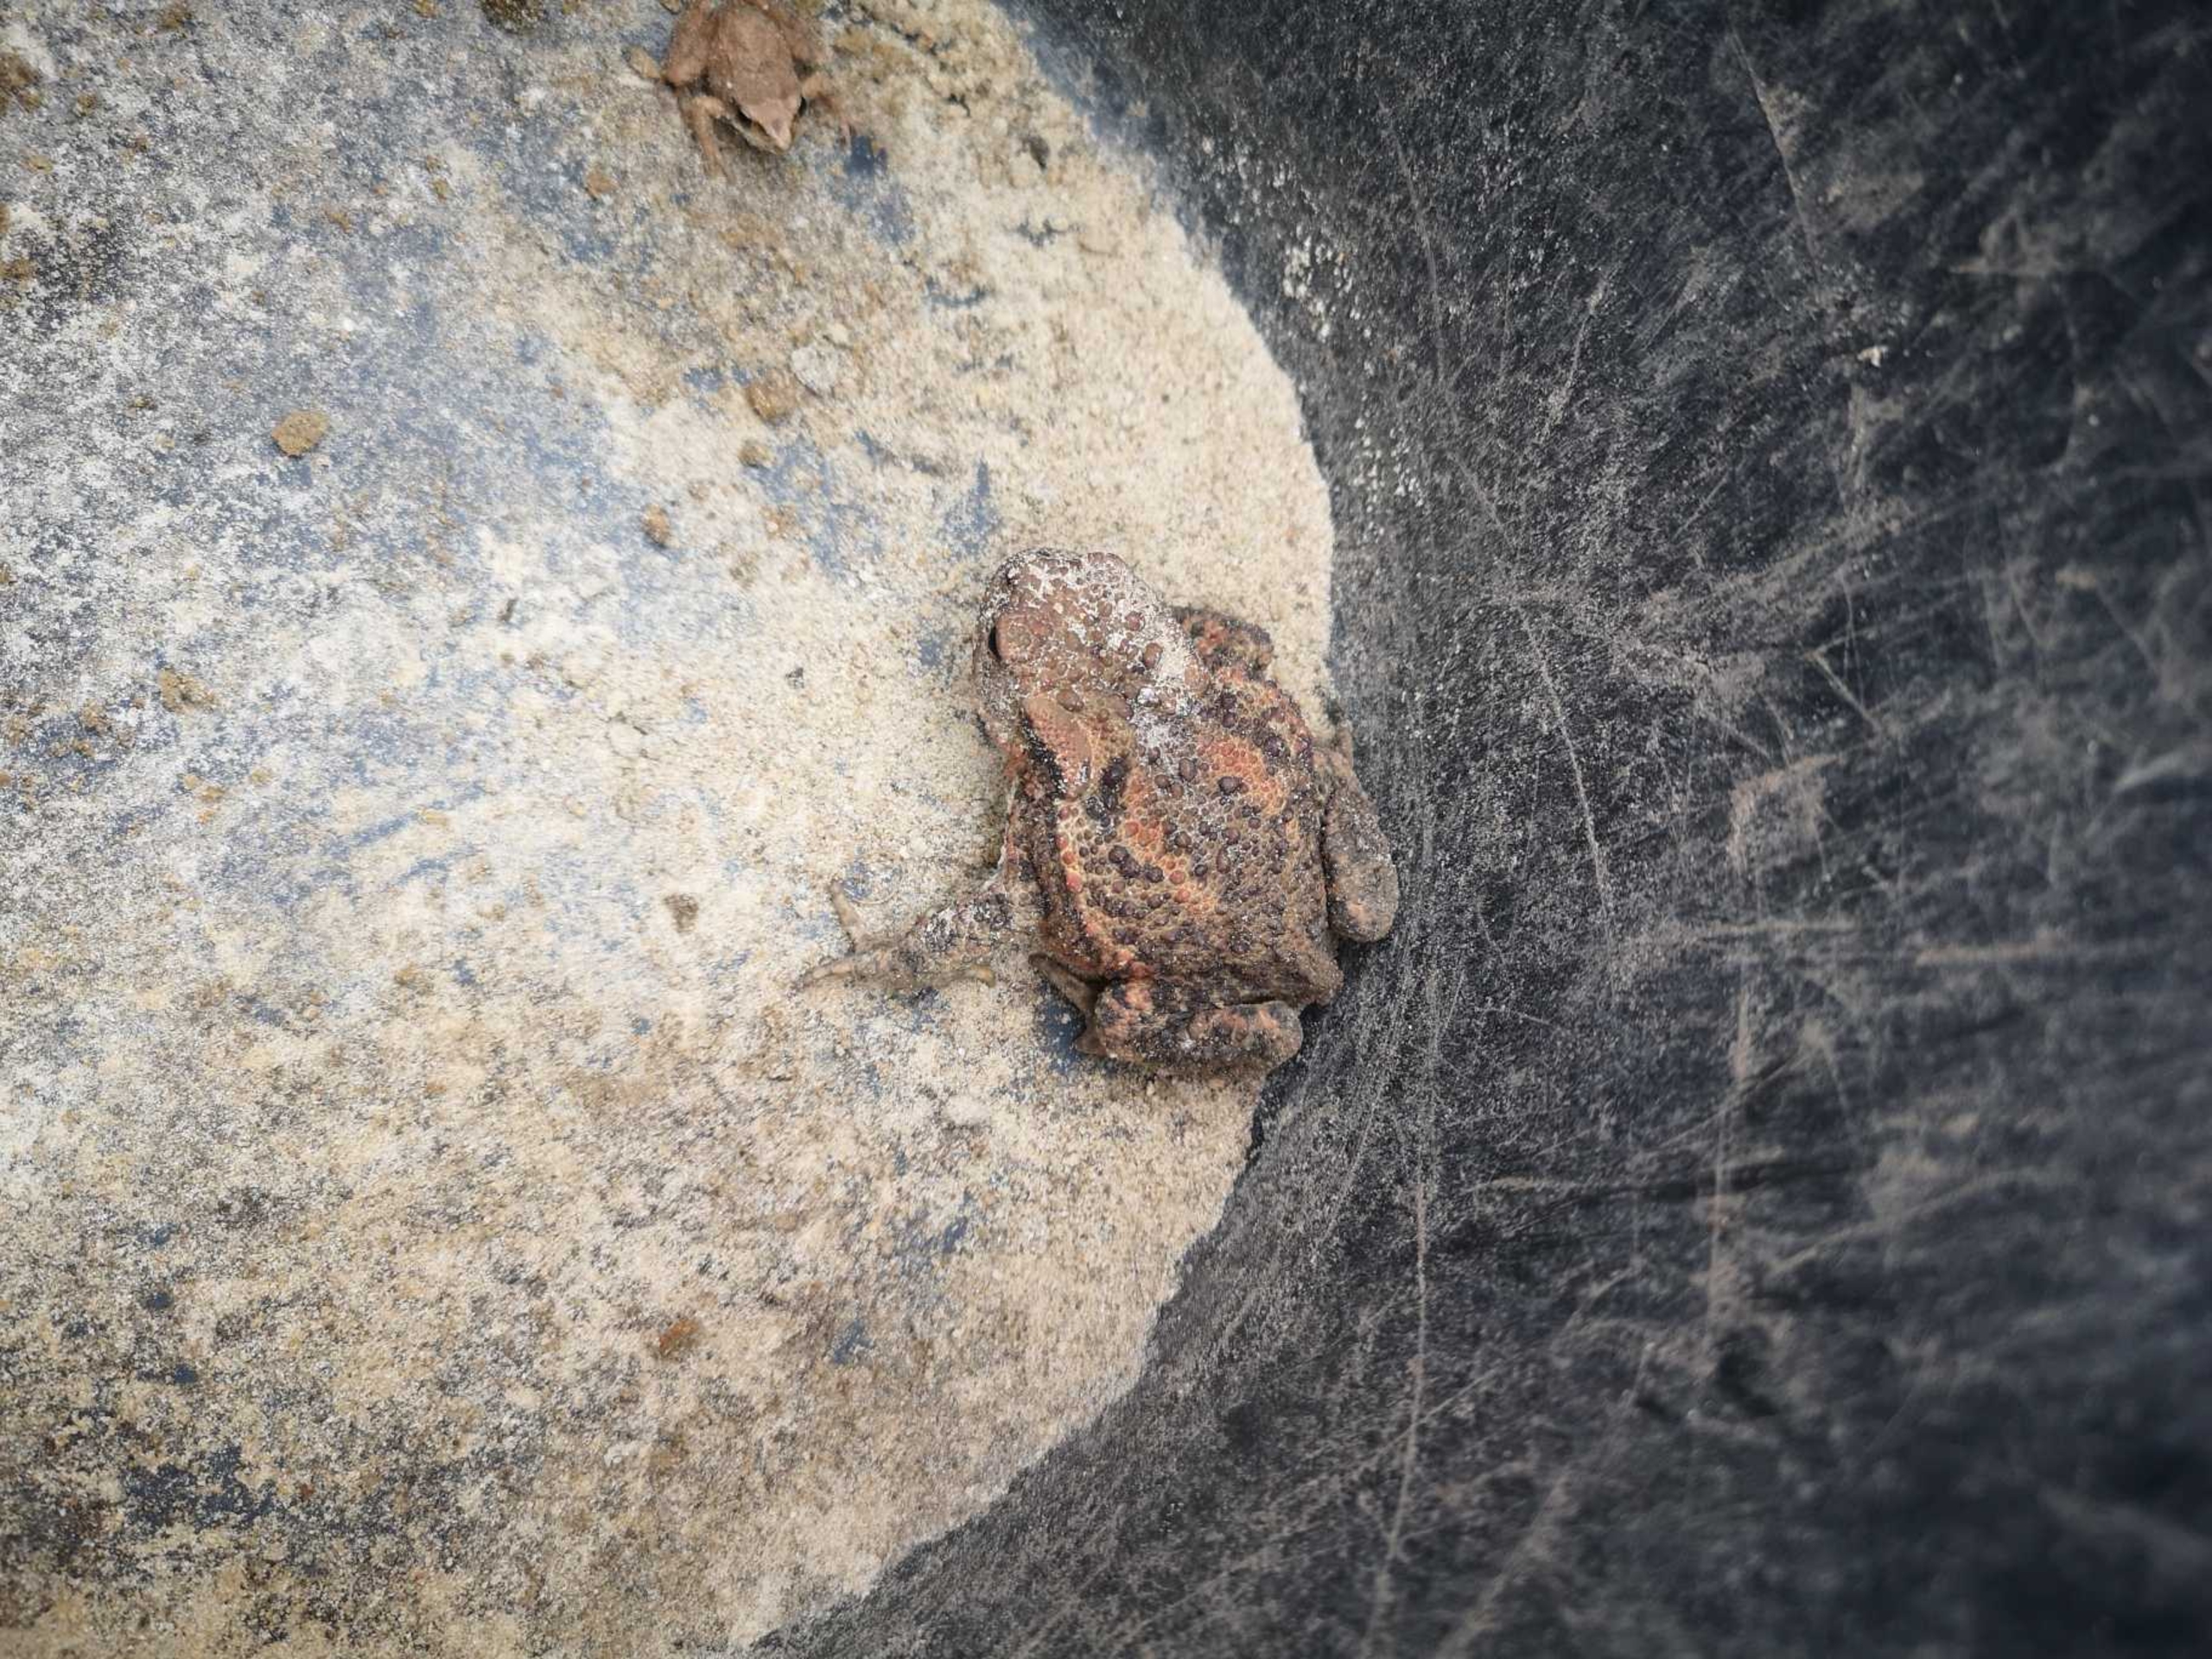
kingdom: Animalia
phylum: Chordata
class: Amphibia
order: Anura
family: Bufonidae
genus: Bufo
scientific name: Bufo bufo
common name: Skrubtudse
